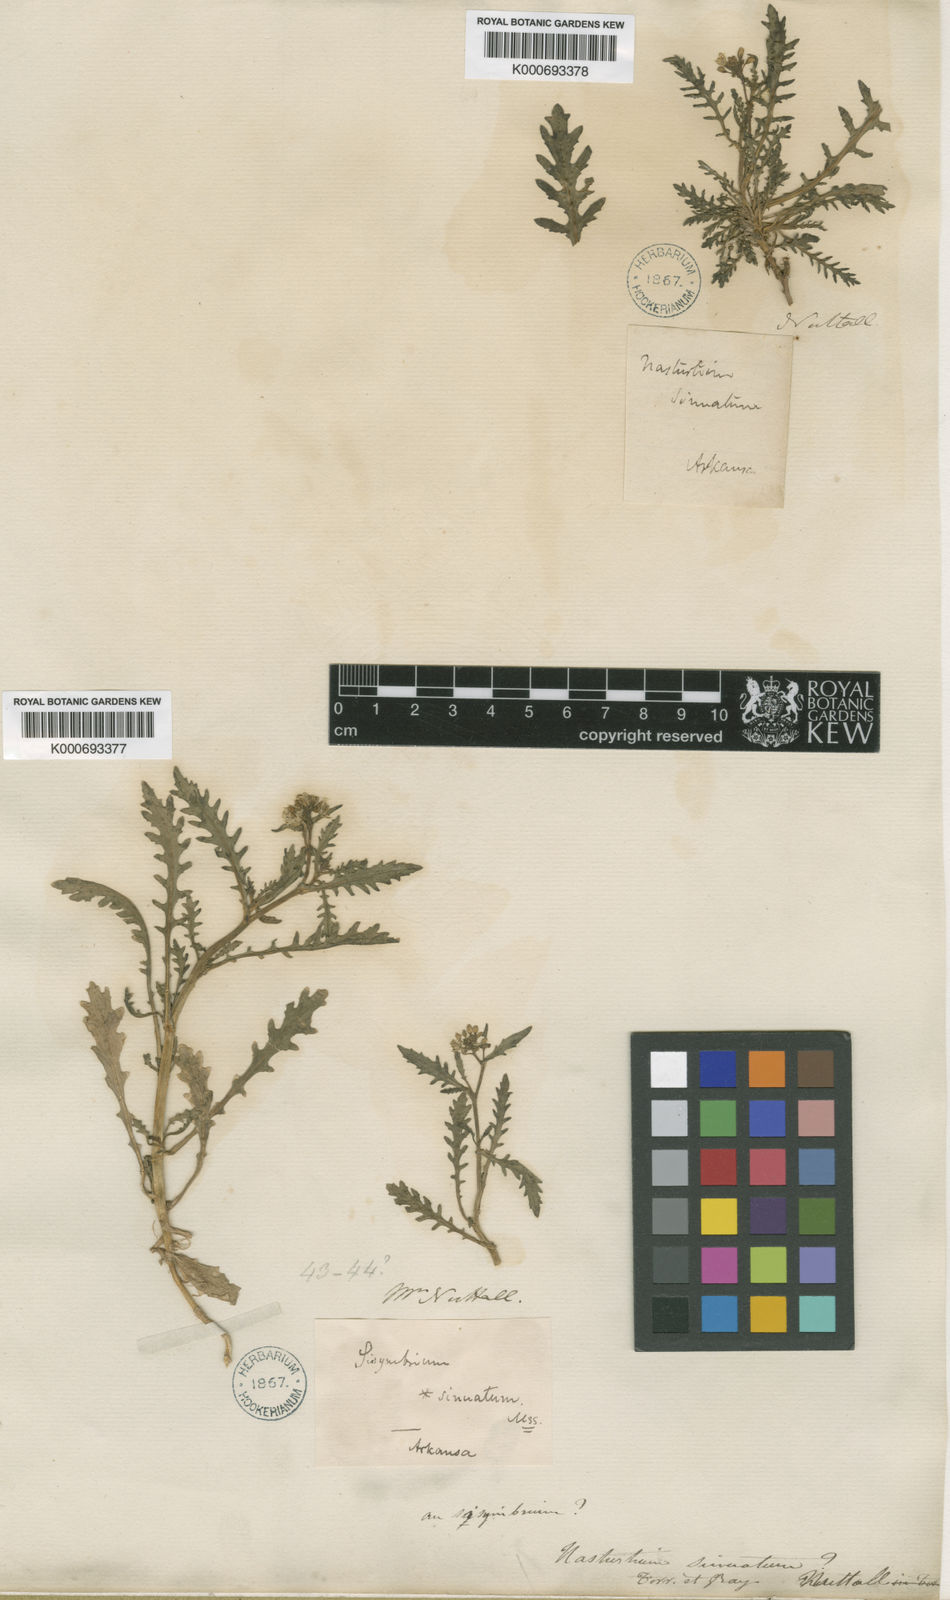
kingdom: Plantae
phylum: Tracheophyta
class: Magnoliopsida
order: Brassicales
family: Brassicaceae
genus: Rorippa
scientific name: Rorippa sinuata
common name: Spread yellow cress
